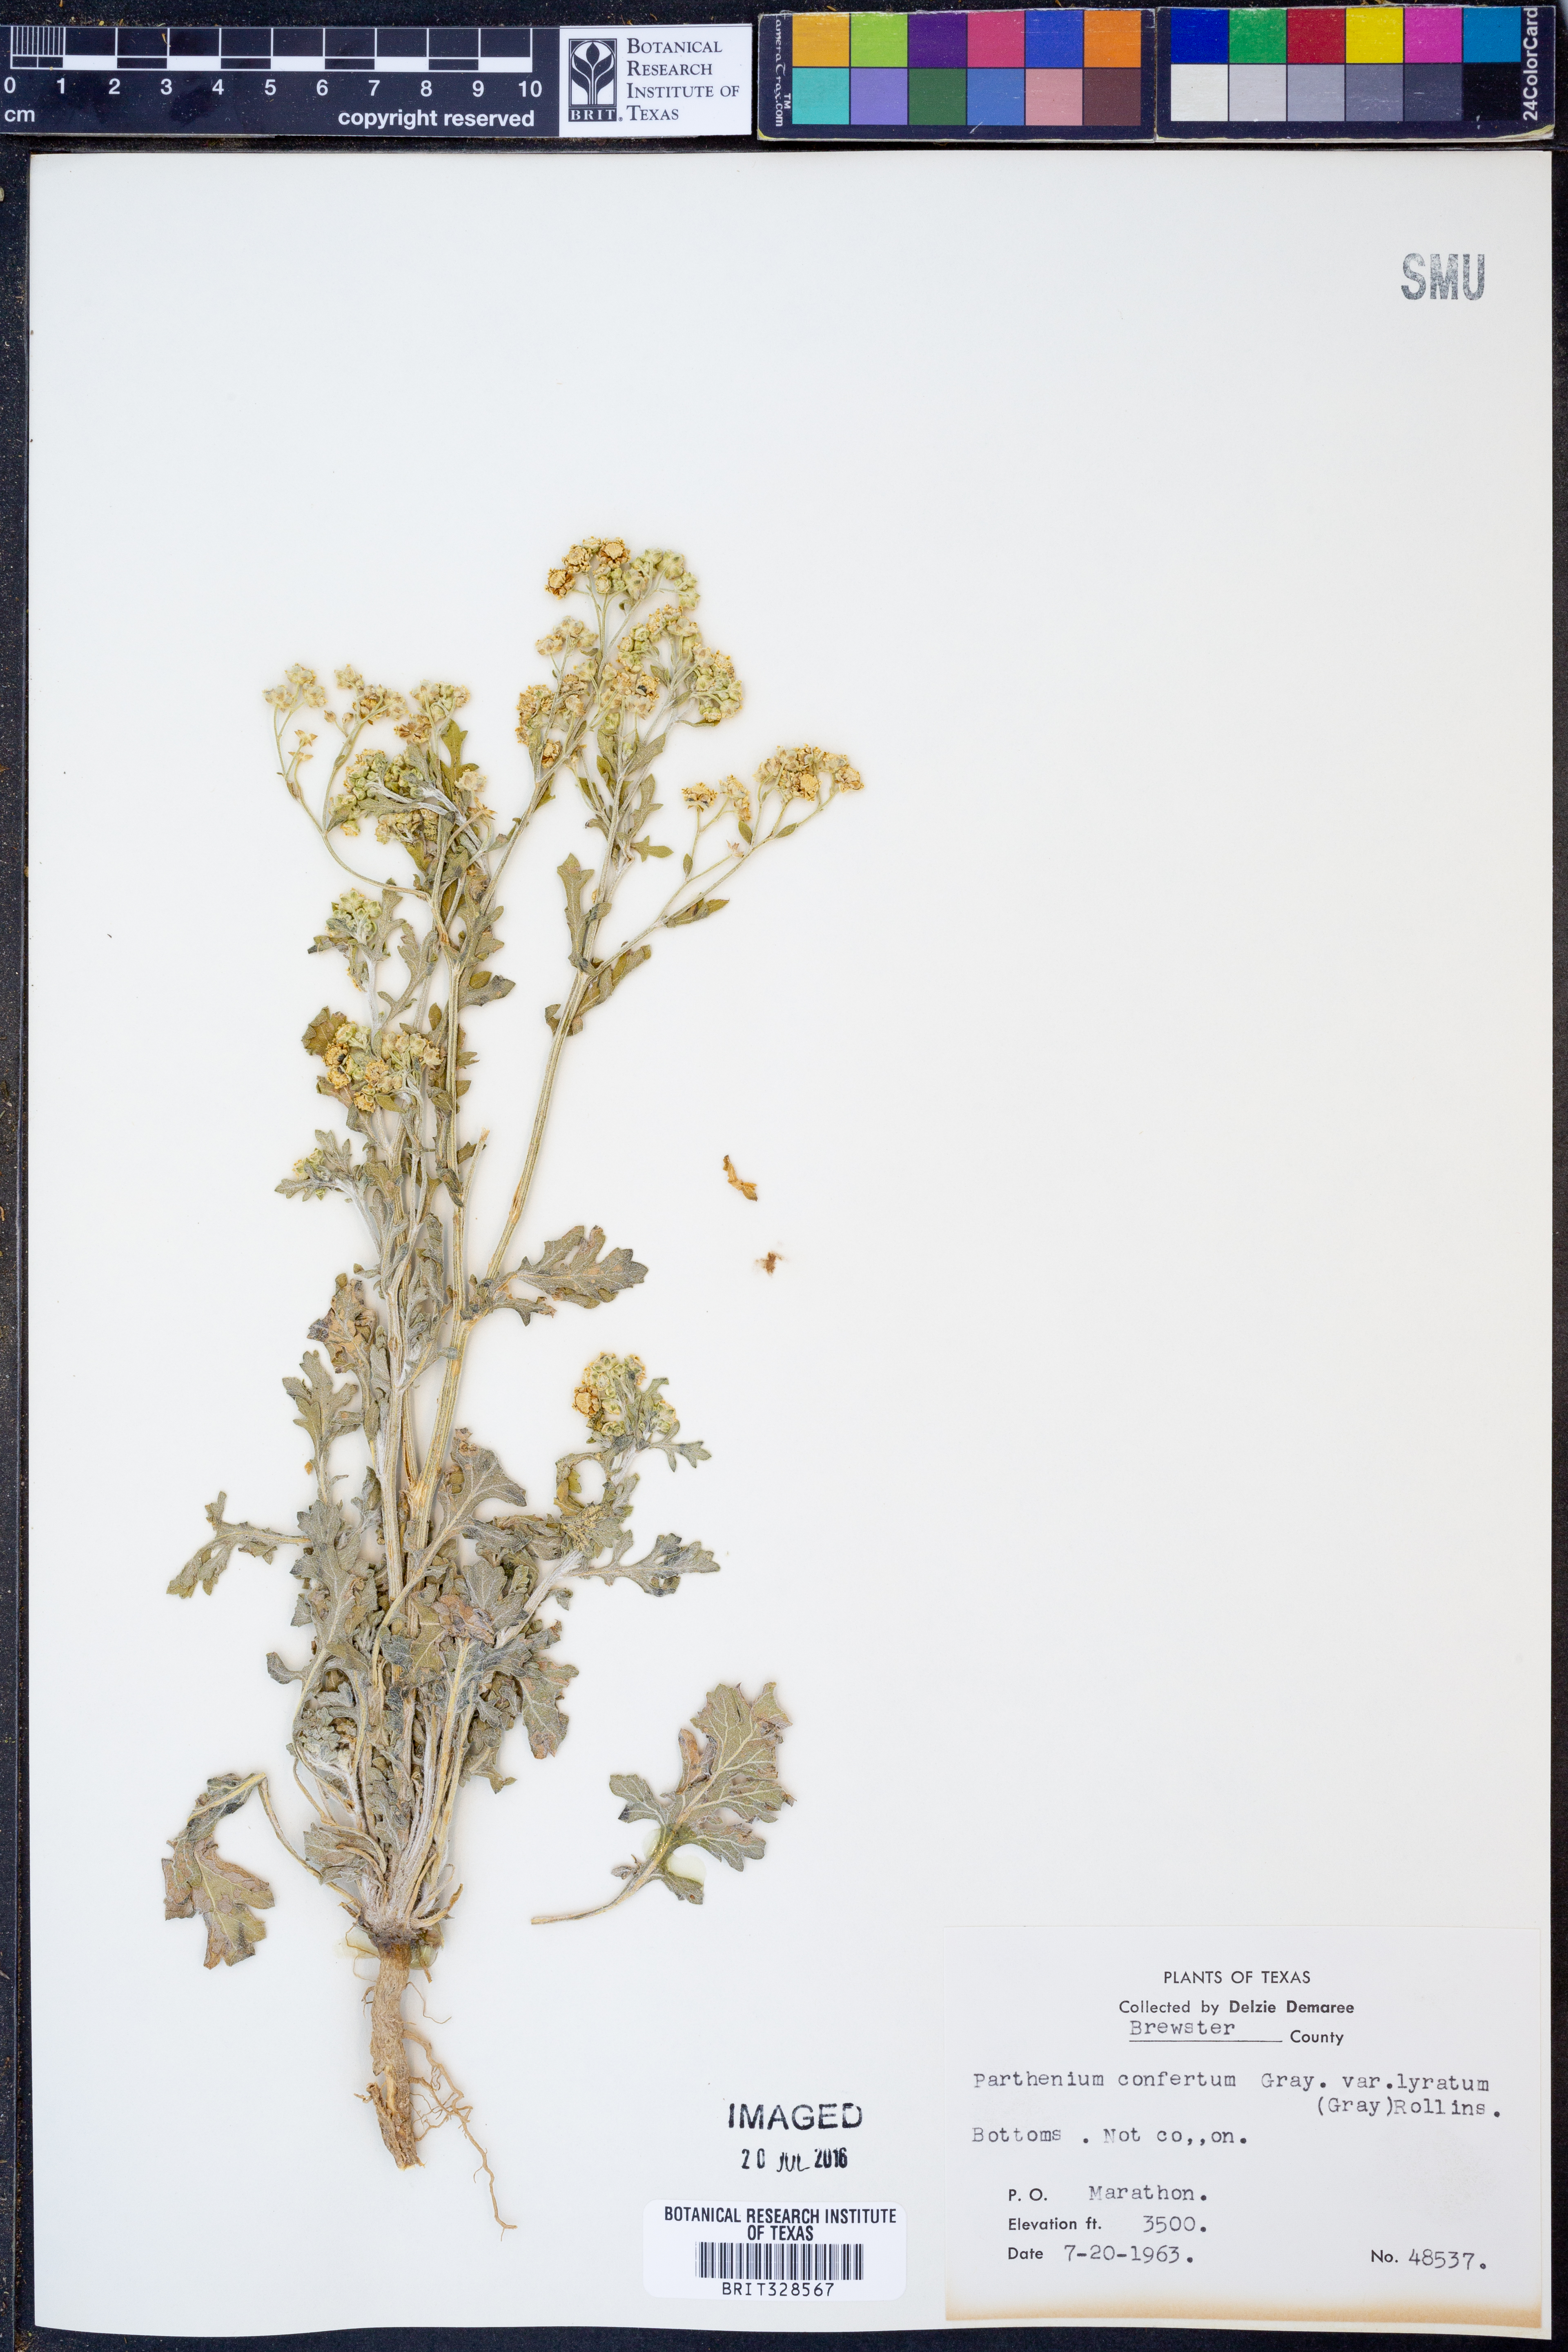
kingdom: Plantae
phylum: Tracheophyta
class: Magnoliopsida
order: Asterales
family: Asteraceae
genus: Parthenium
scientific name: Parthenium confertum
